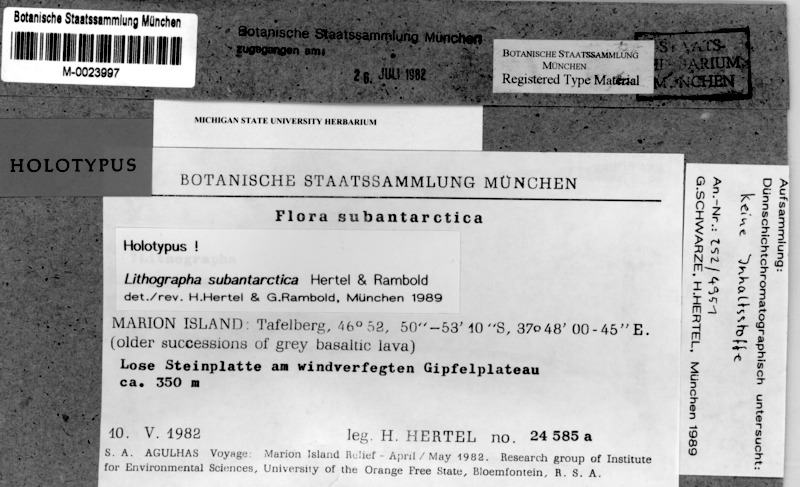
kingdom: Fungi
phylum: Ascomycota
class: Lecanoromycetes
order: Baeomycetales
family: Xylographaceae
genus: Lithographa
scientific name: Lithographa graphidioides
